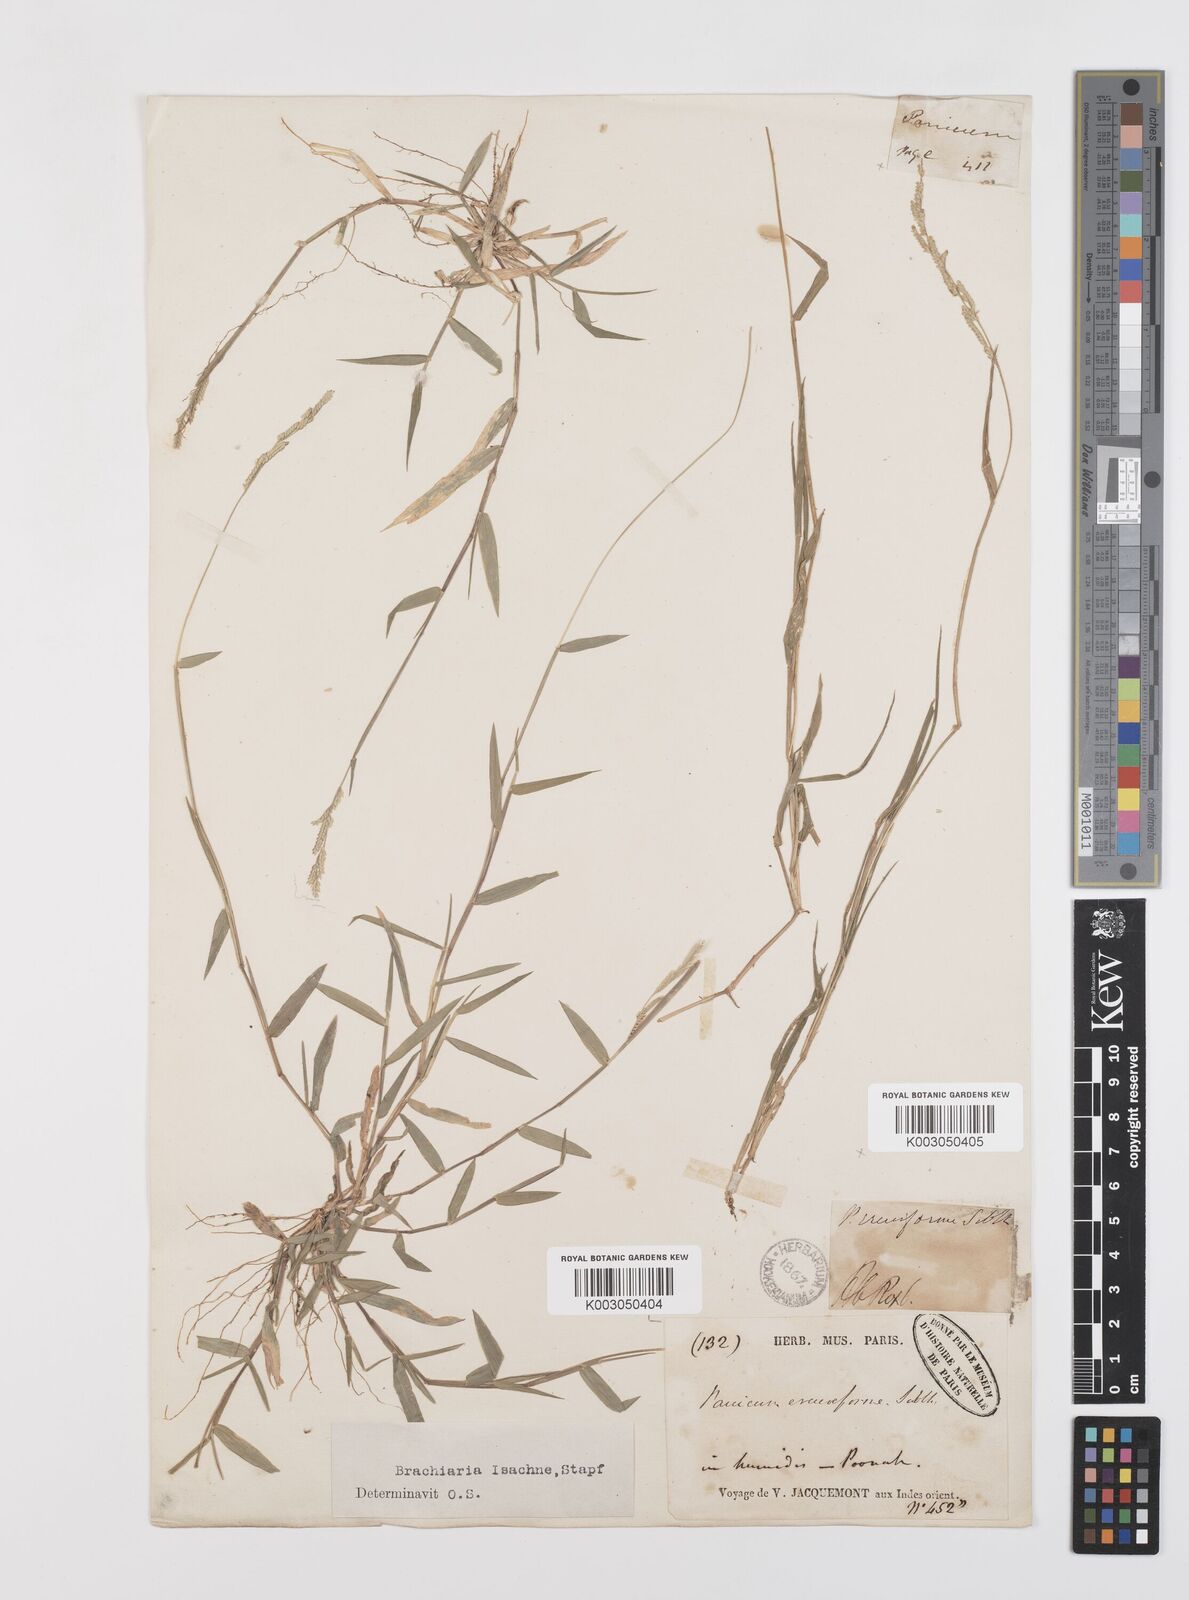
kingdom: Plantae
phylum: Tracheophyta
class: Liliopsida
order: Poales
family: Poaceae
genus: Moorochloa
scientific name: Moorochloa eruciformis
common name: Sweet signalgrass
